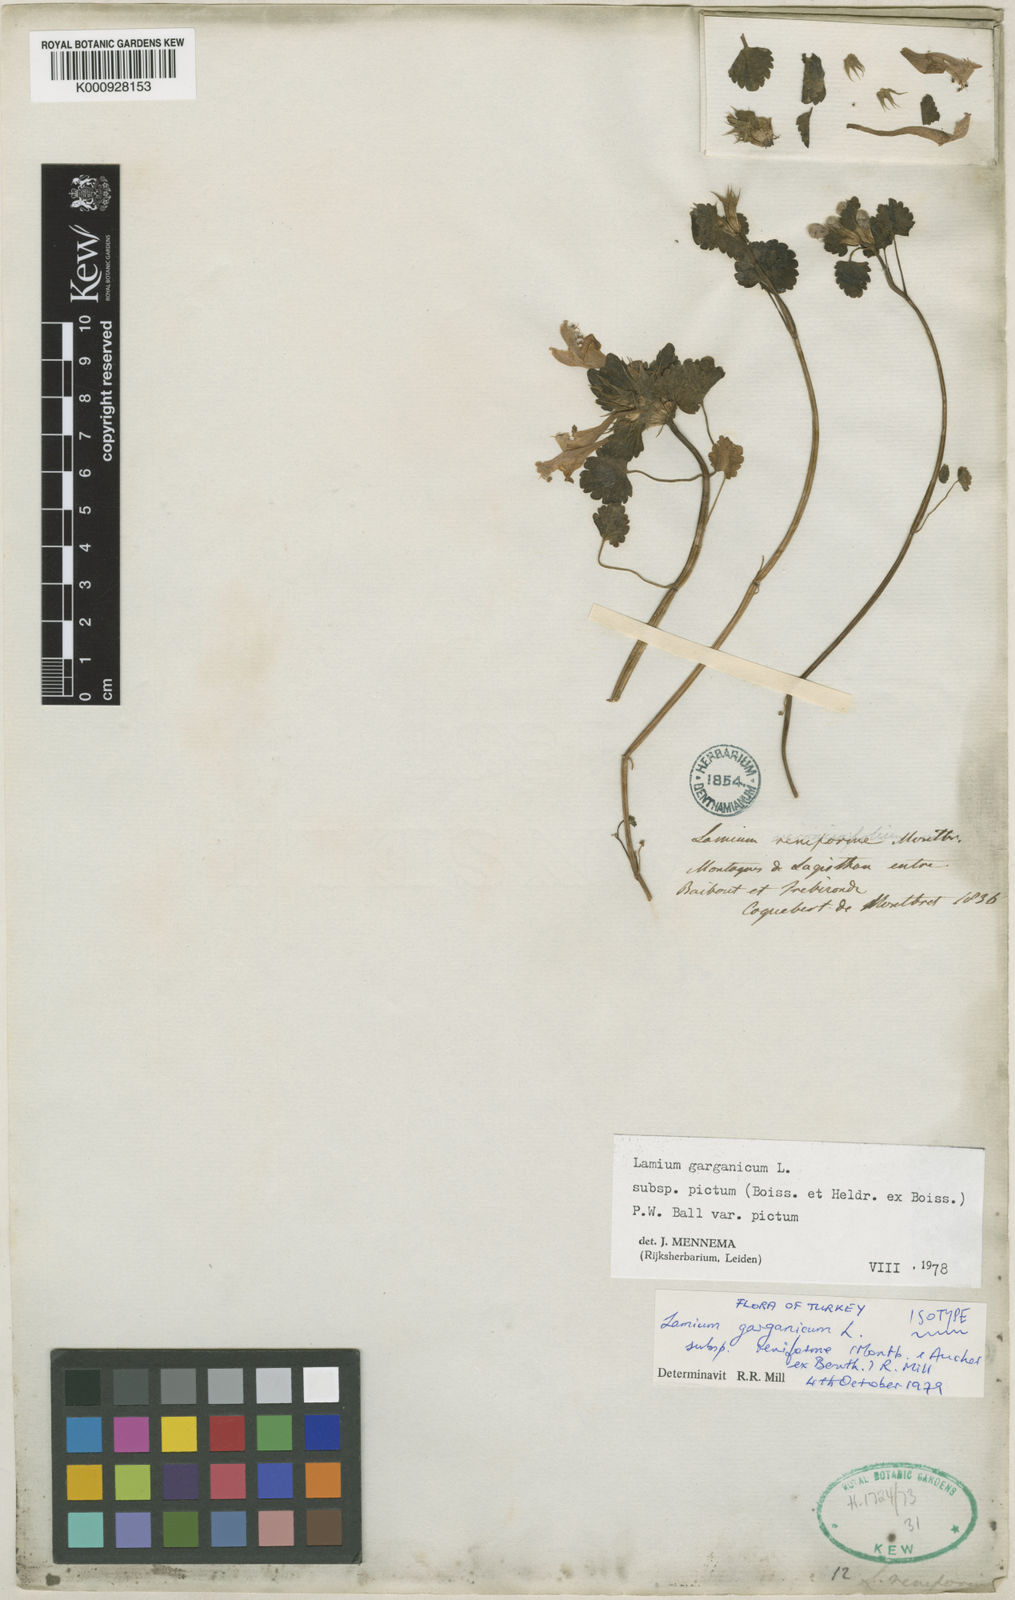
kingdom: Plantae
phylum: Tracheophyta
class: Magnoliopsida
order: Lamiales
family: Lamiaceae
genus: Lamium
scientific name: Lamium garganicum
